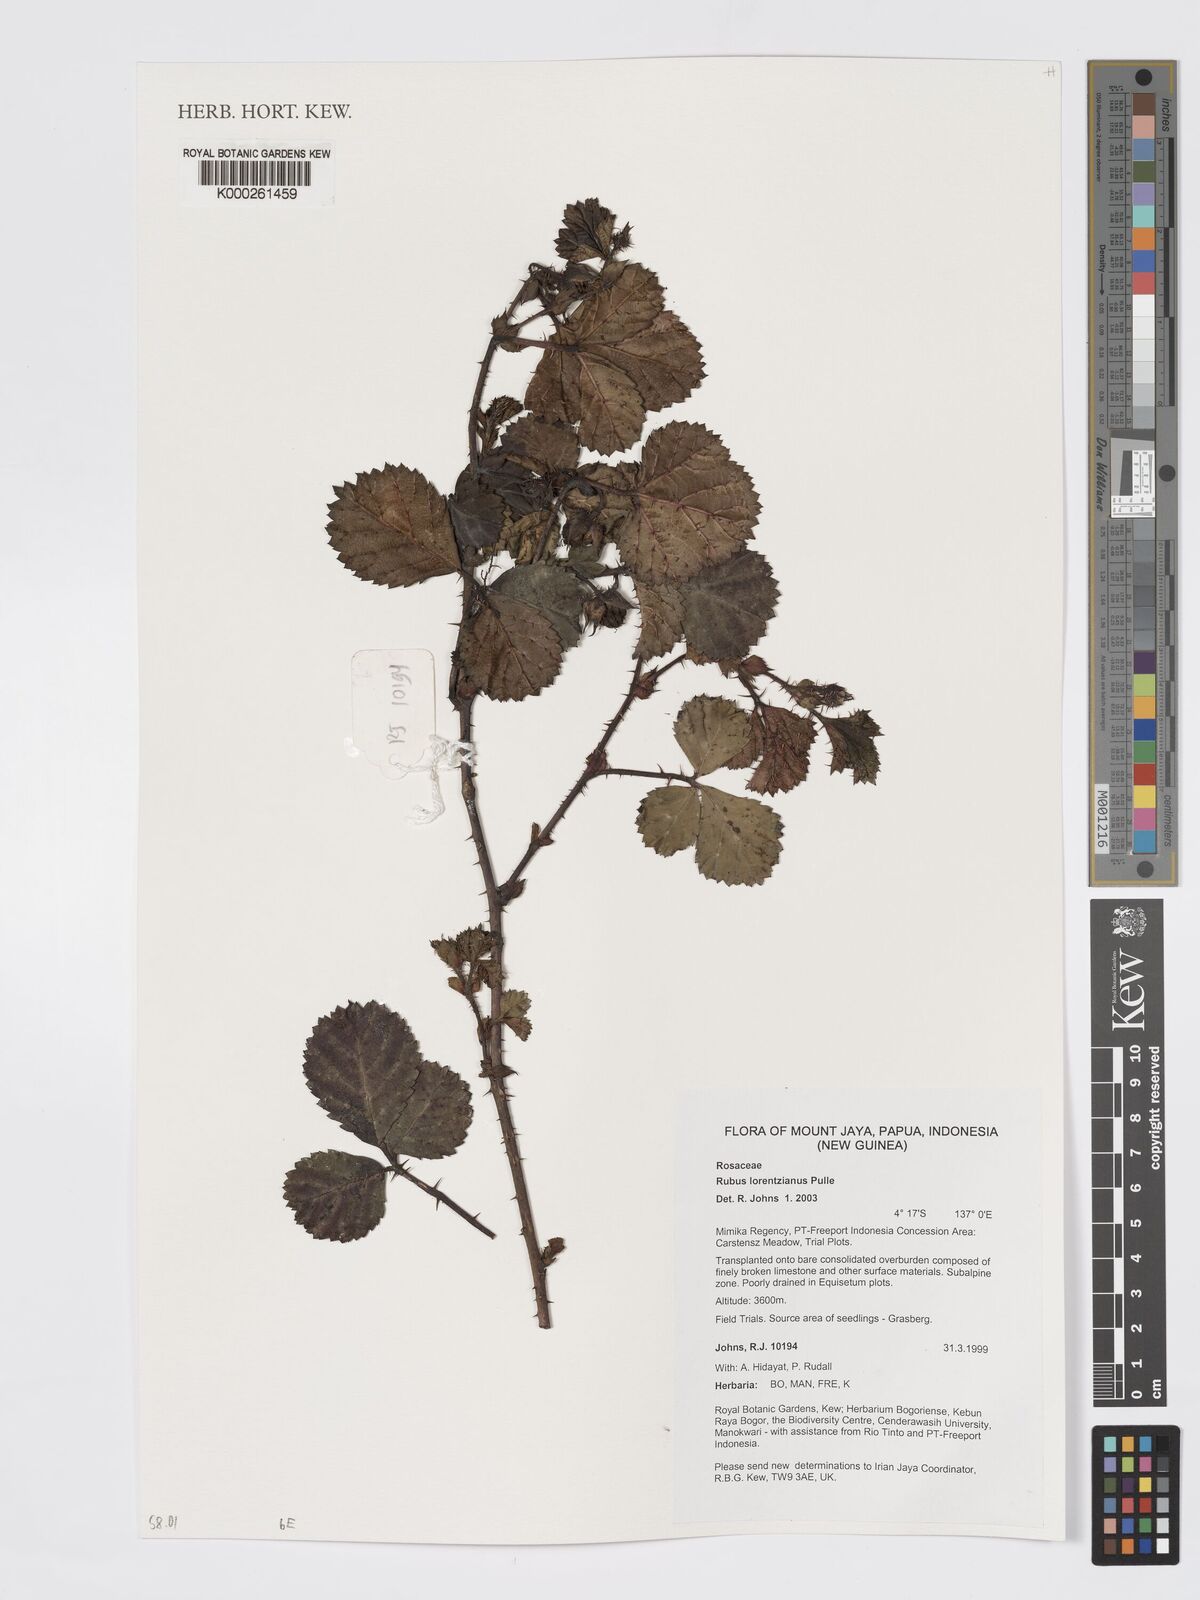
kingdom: Plantae
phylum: Tracheophyta
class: Magnoliopsida
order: Rosales
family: Rosaceae
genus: Rubus
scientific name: Rubus lorentzianus
